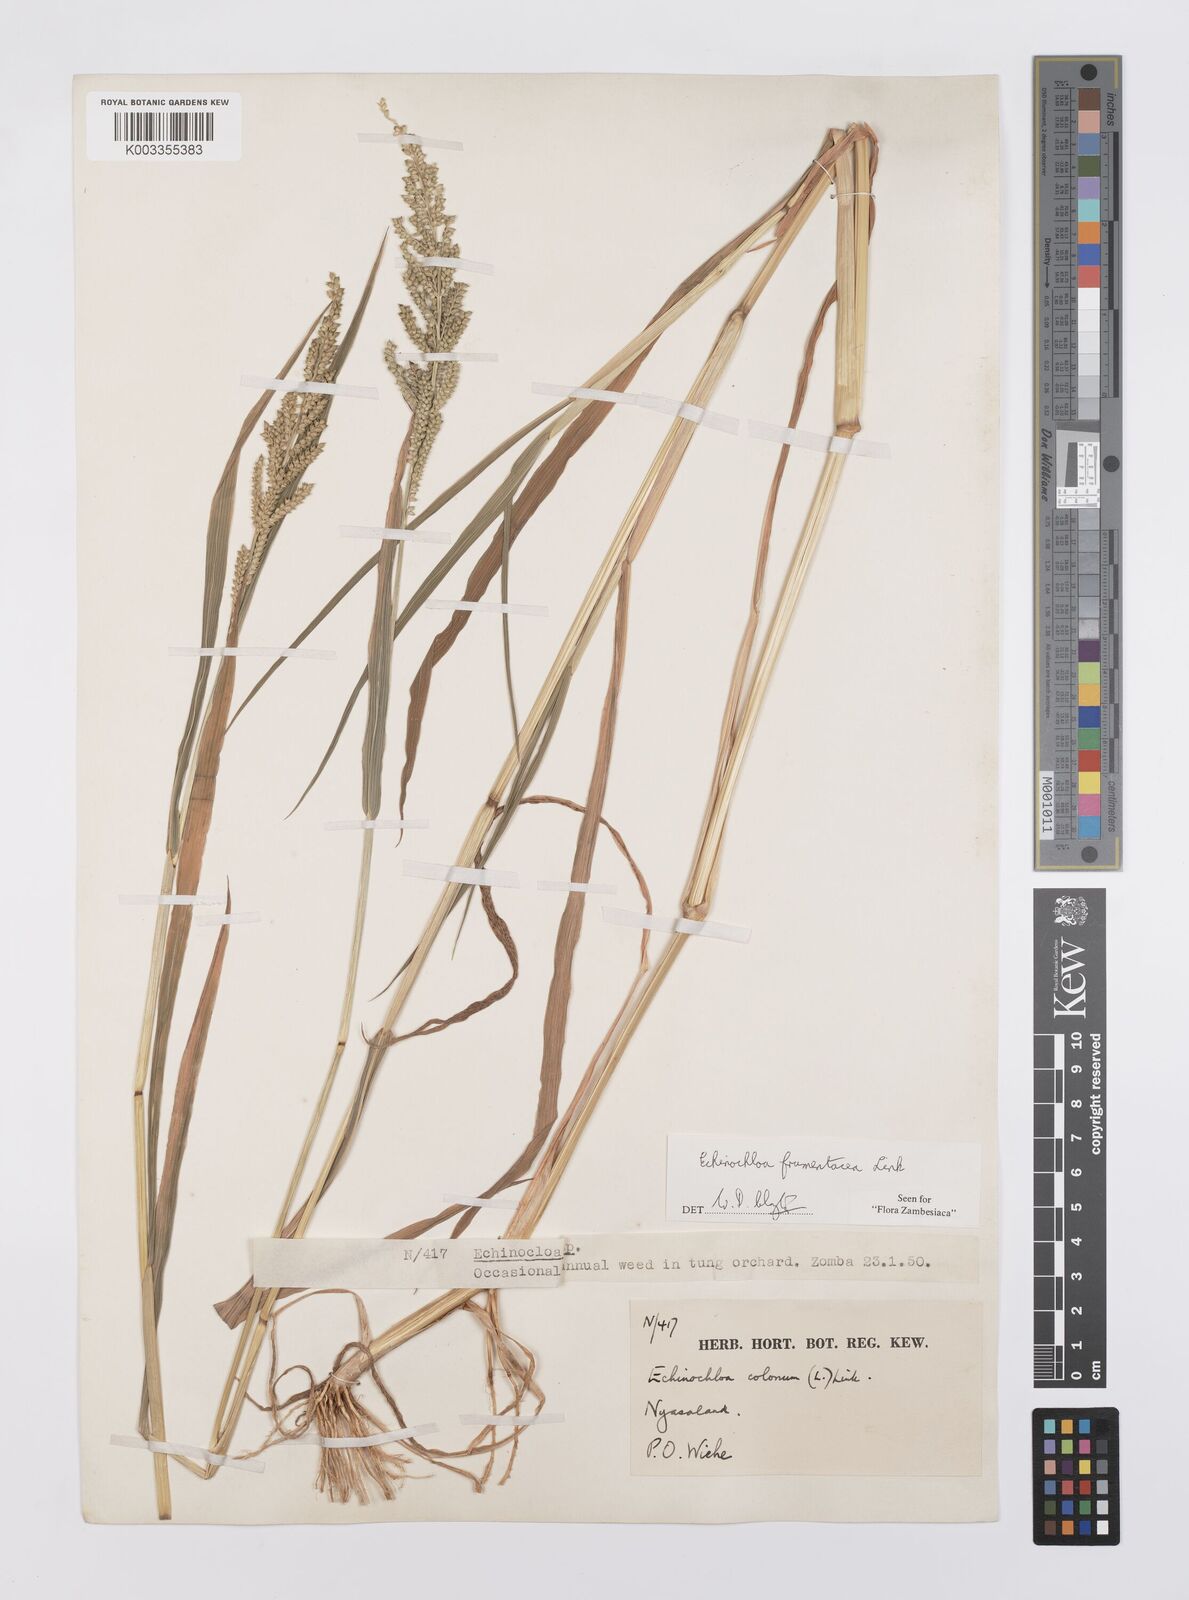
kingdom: Plantae
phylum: Tracheophyta
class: Liliopsida
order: Poales
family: Poaceae
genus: Echinochloa
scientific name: Echinochloa frumentacea
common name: Billion-dollar grass
